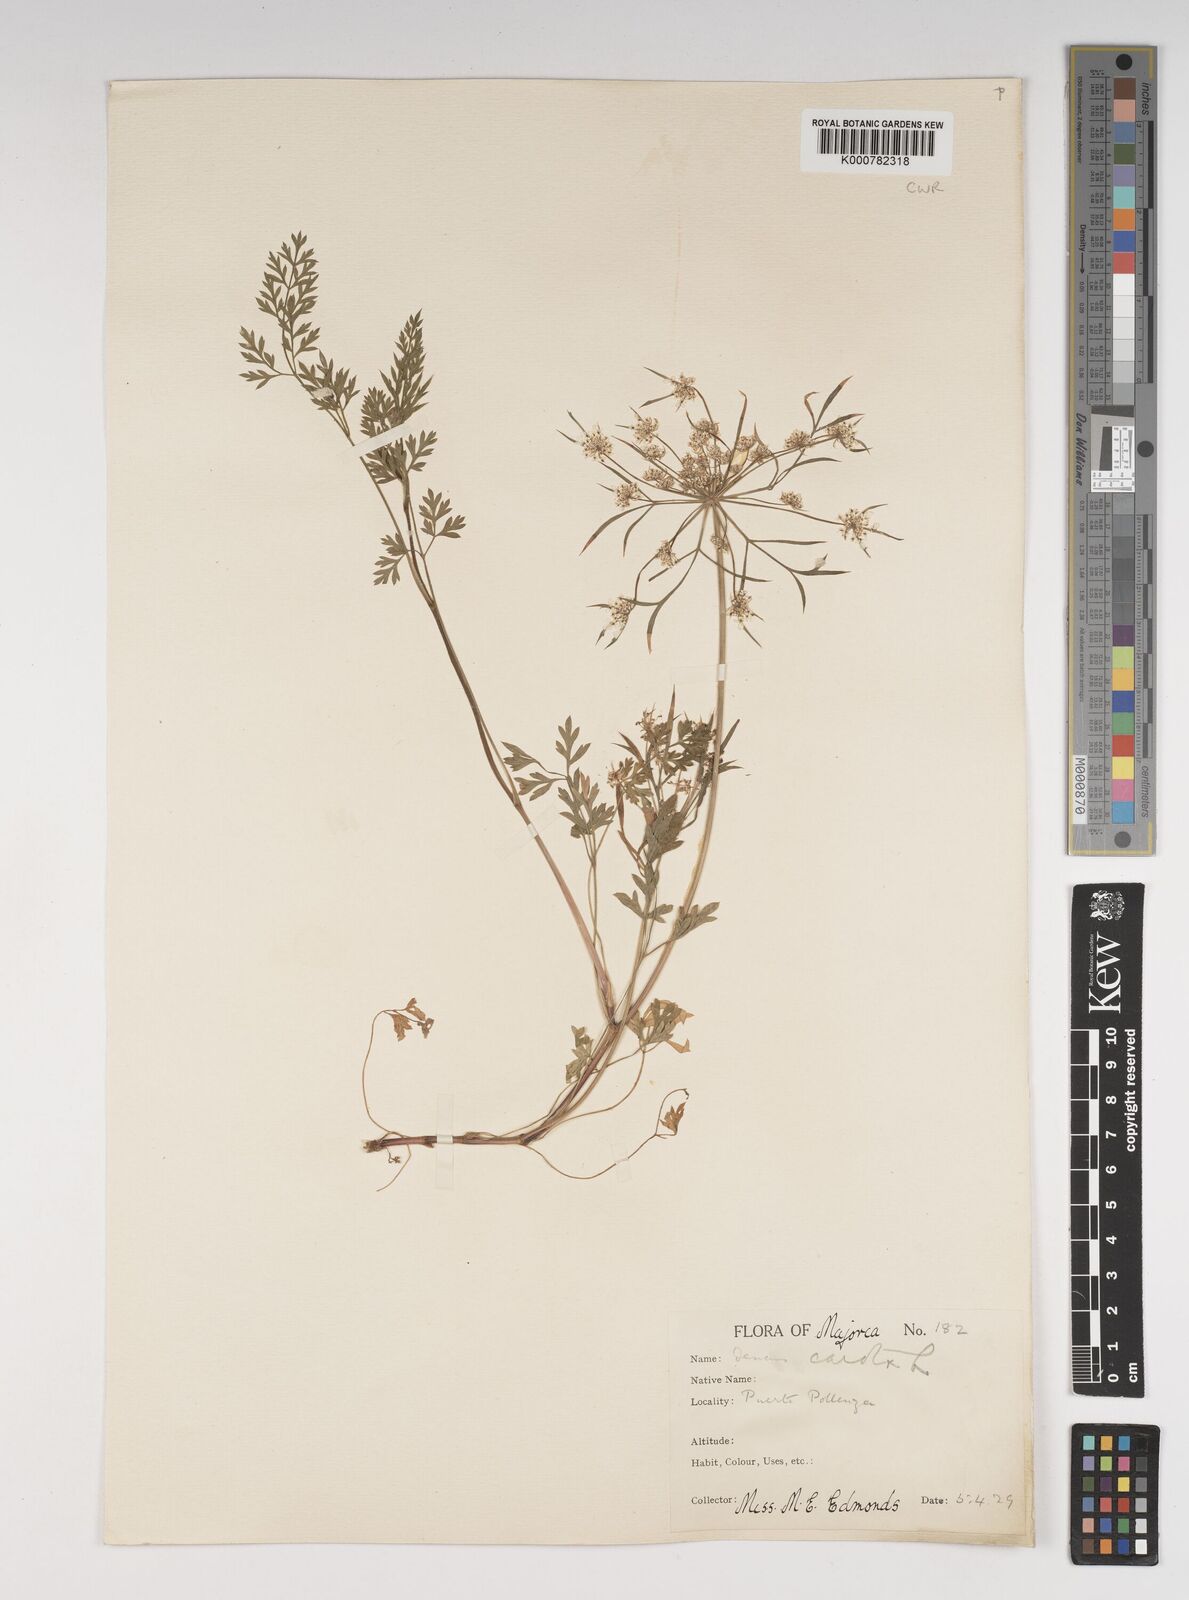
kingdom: Plantae
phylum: Tracheophyta
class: Magnoliopsida
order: Apiales
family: Apiaceae
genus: Daucus
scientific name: Daucus carota
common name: Wild carrot
